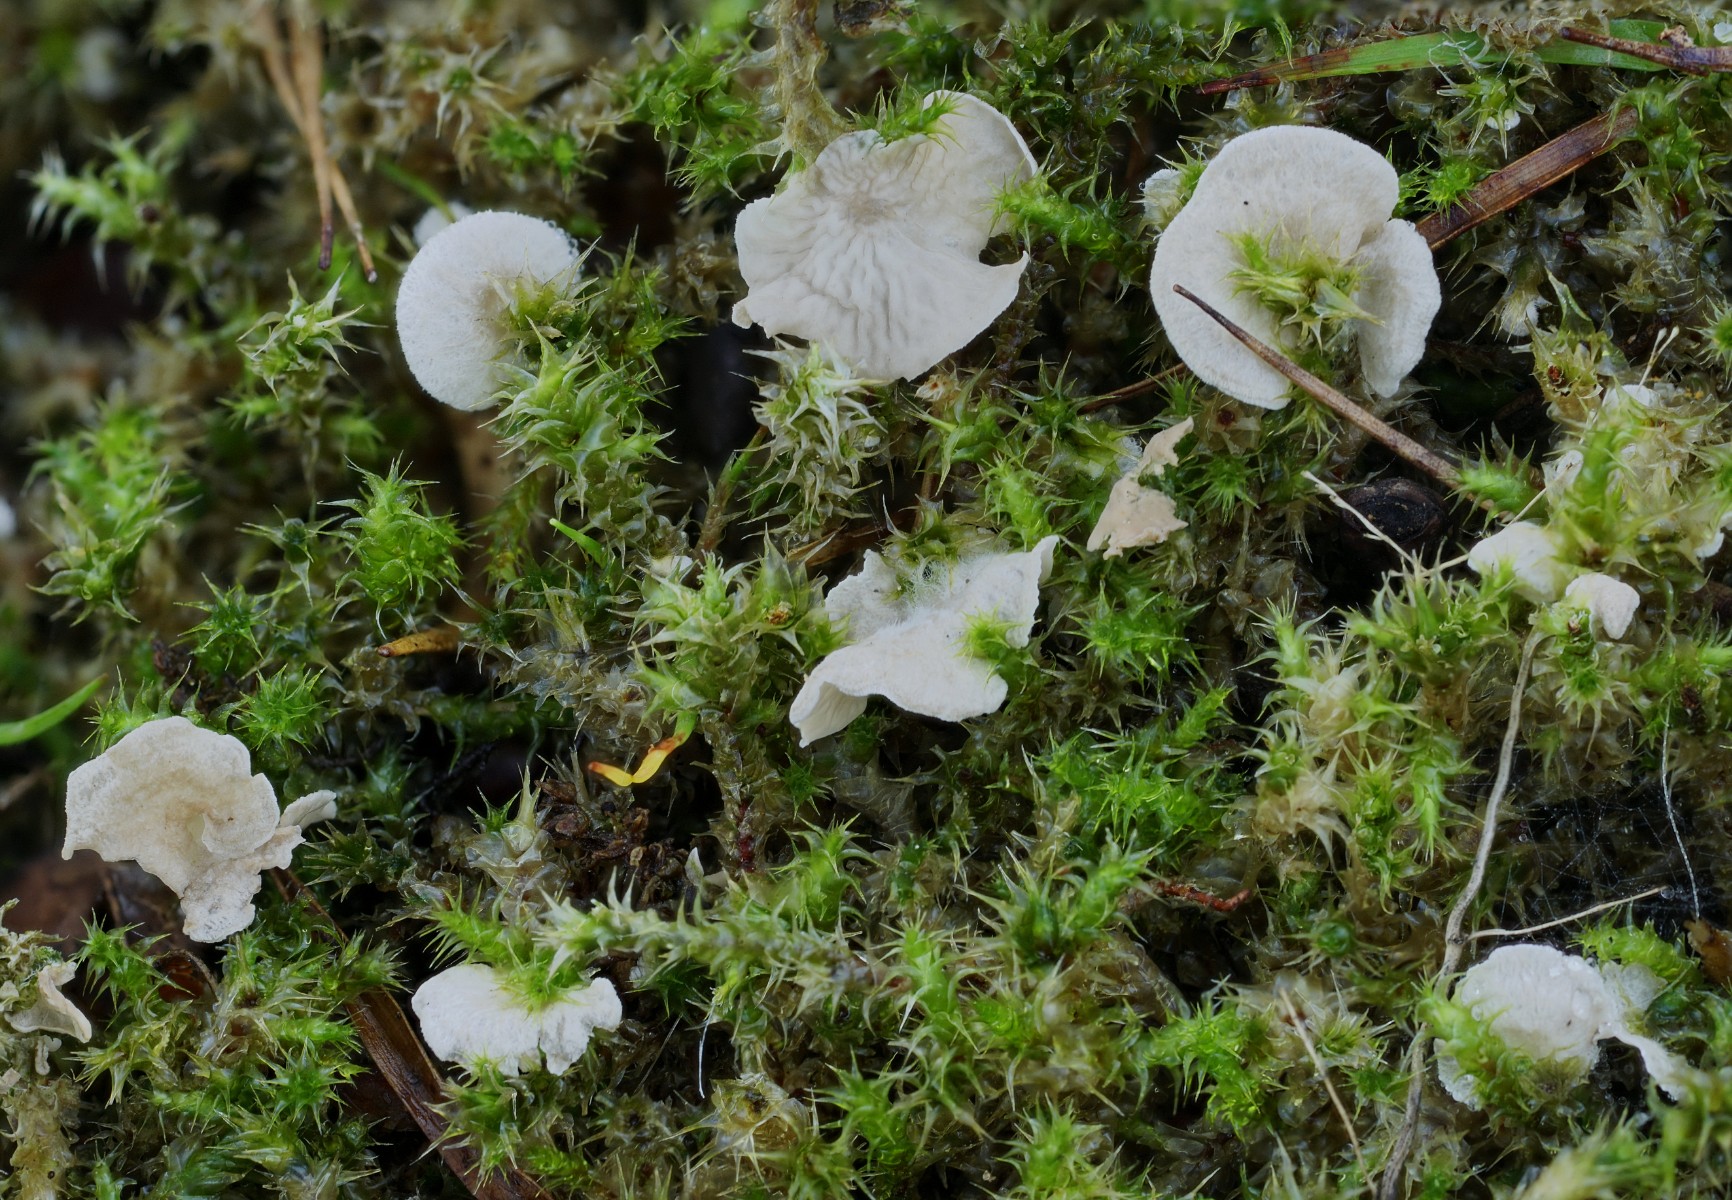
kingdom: Fungi
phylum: Basidiomycota
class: Agaricomycetes
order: Agaricales
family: Hygrophoraceae
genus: Arrhenia
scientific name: Arrhenia retiruga
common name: lille fontænehat
